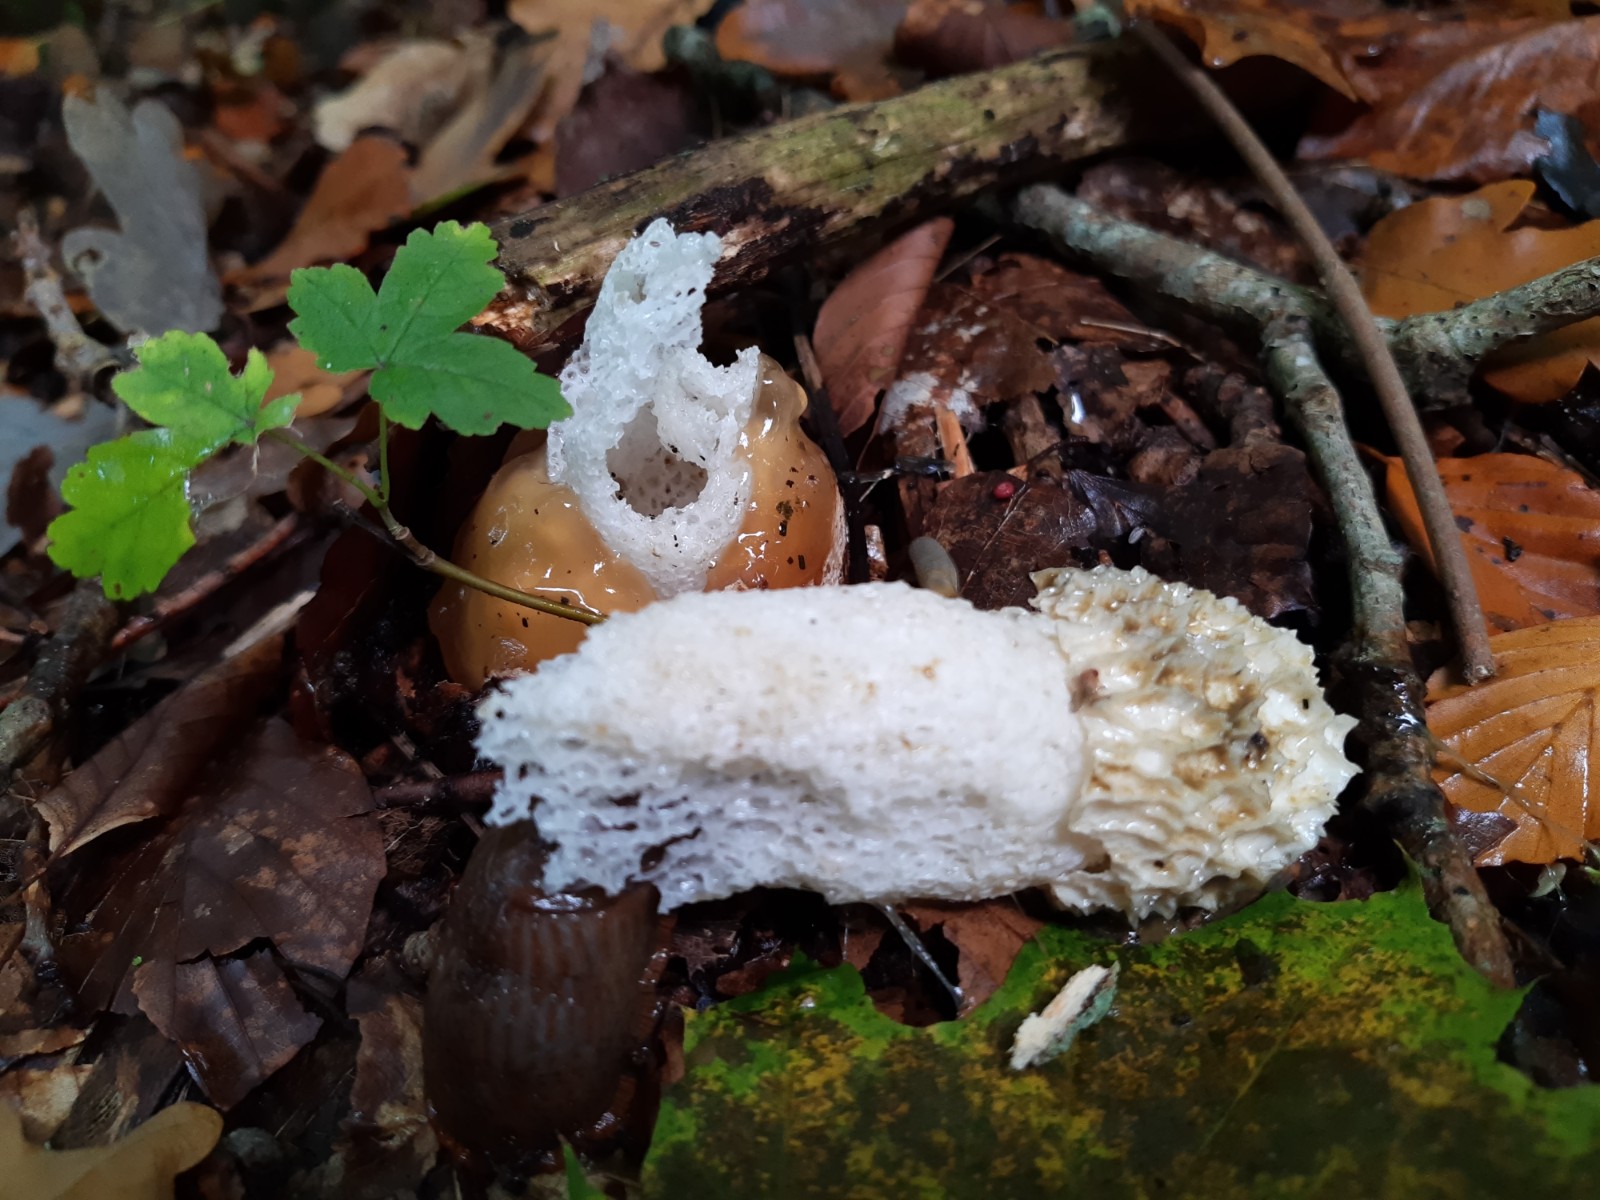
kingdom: Fungi
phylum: Basidiomycota
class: Agaricomycetes
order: Phallales
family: Phallaceae
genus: Phallus
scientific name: Phallus impudicus
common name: almindelig stinksvamp
